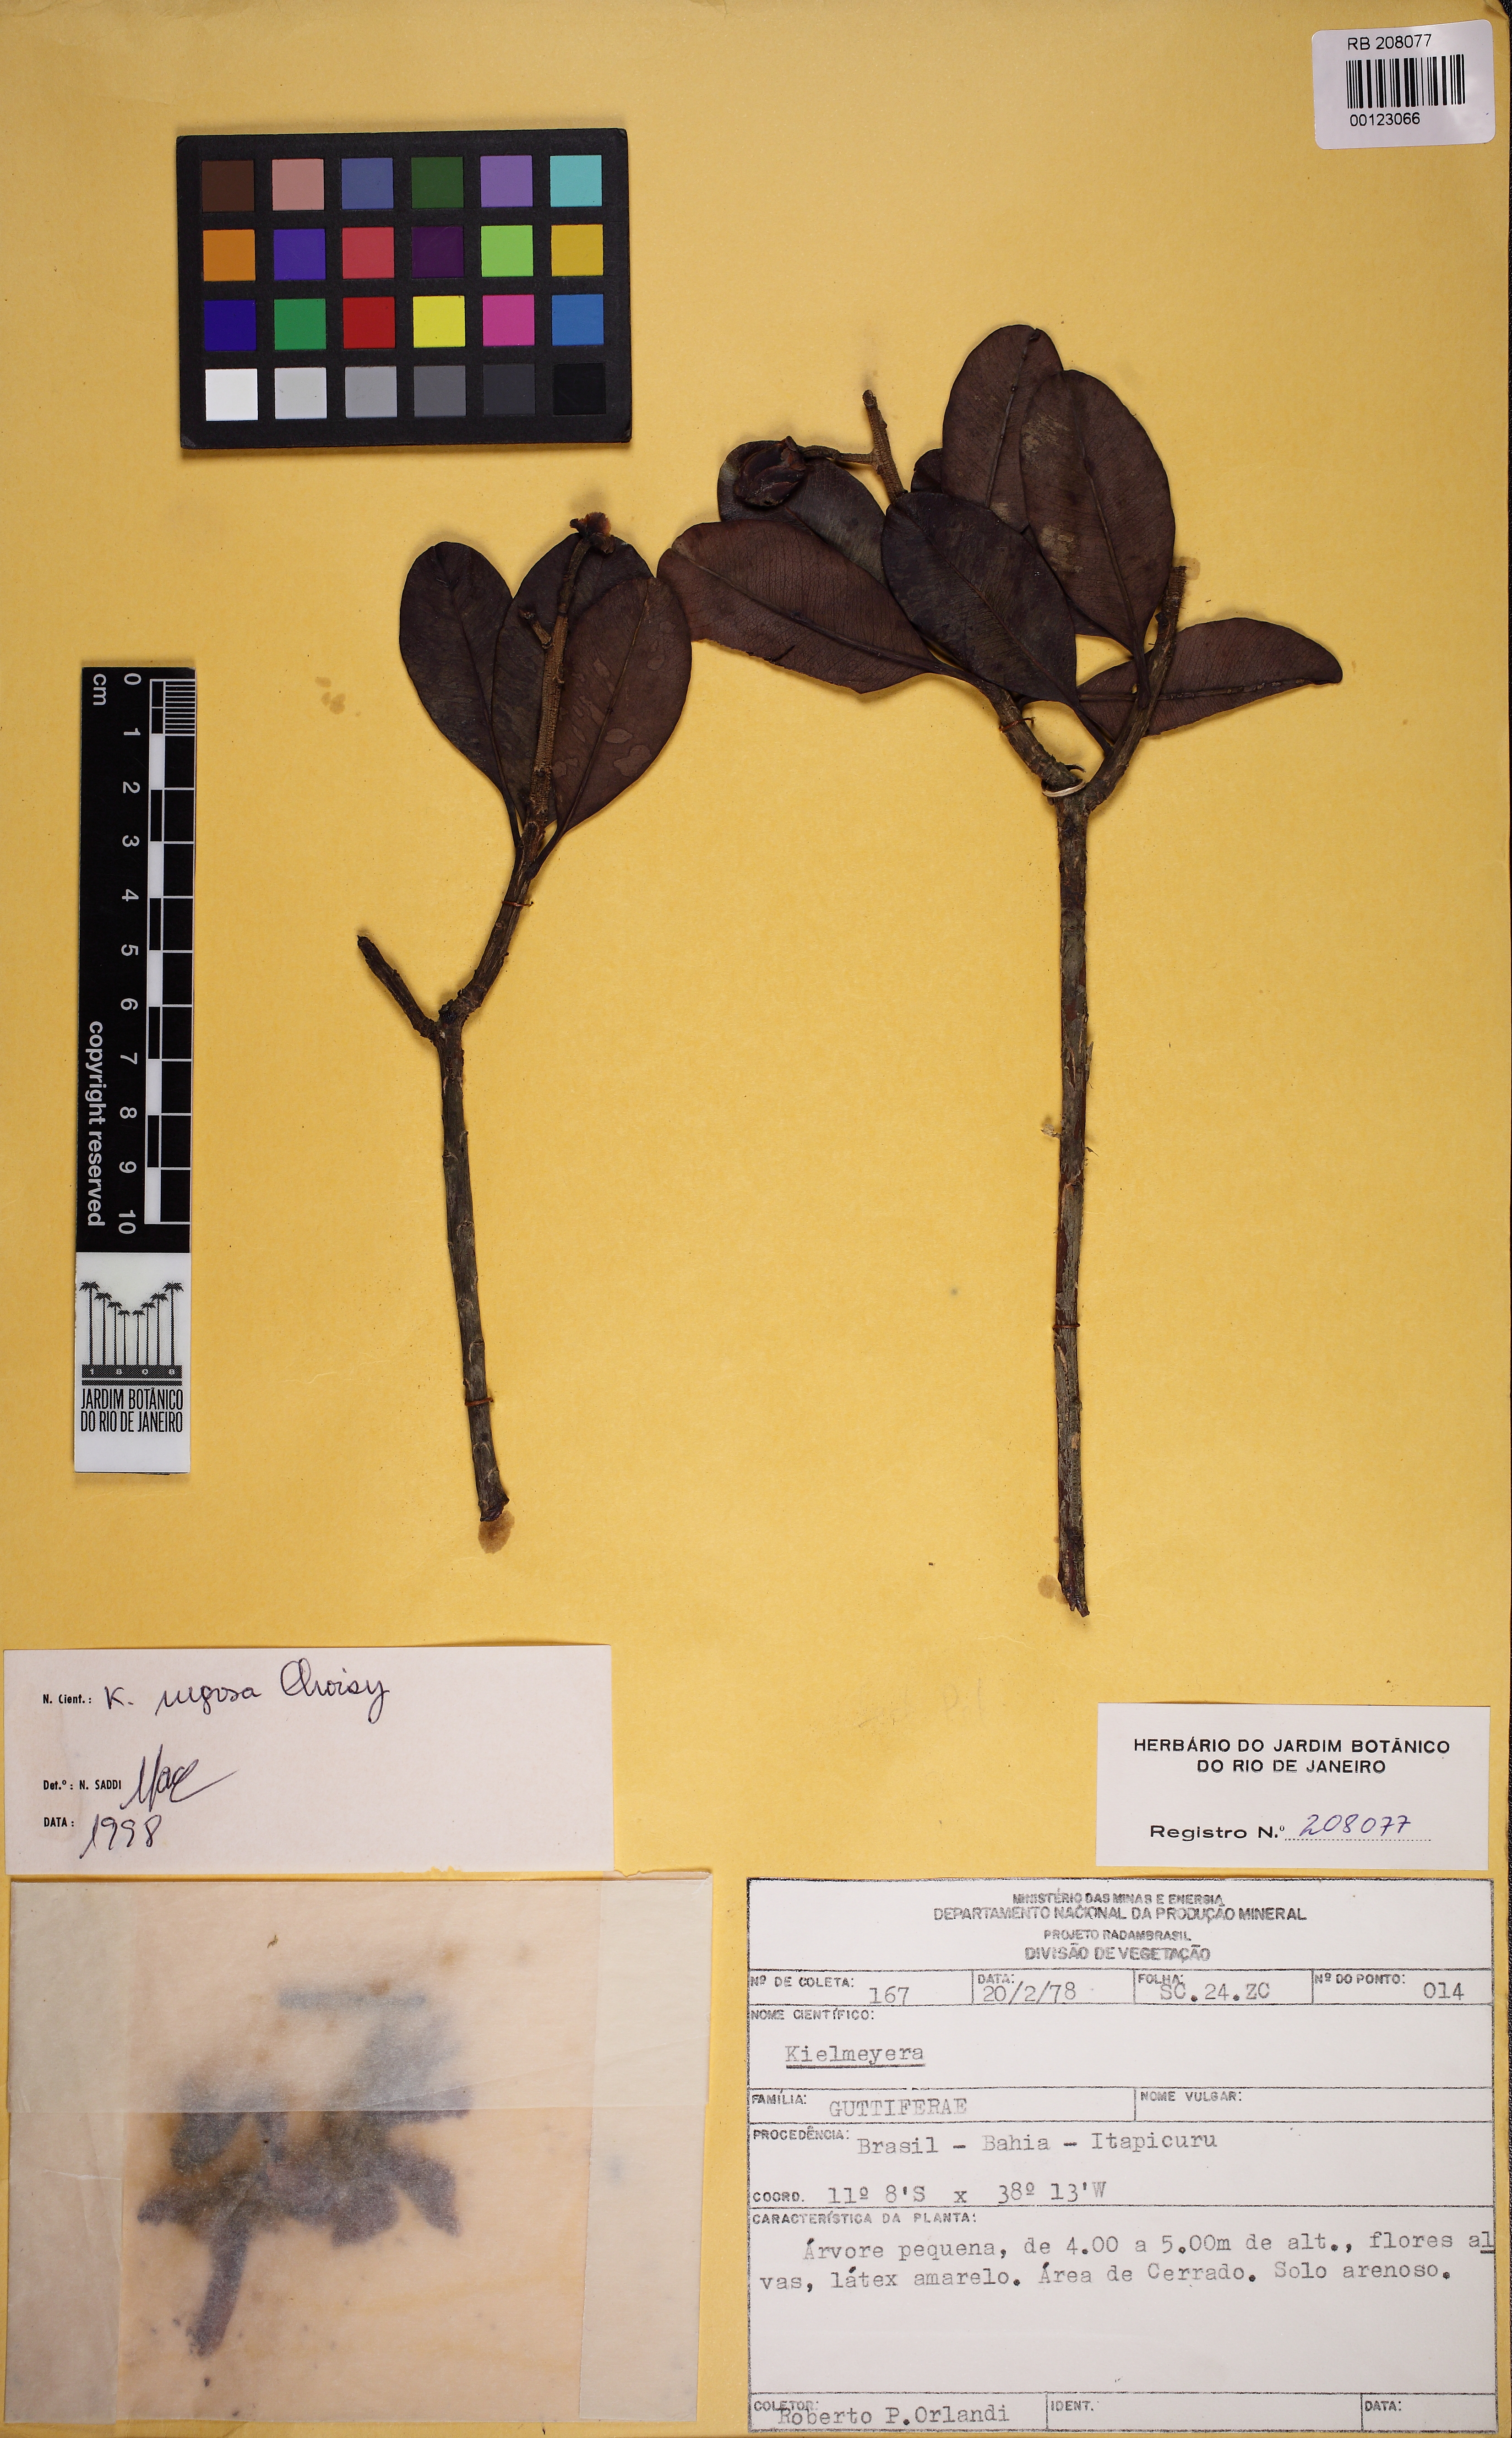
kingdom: Plantae
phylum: Tracheophyta
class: Magnoliopsida
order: Malpighiales
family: Calophyllaceae
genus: Kielmeyera
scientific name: Kielmeyera rugosa
